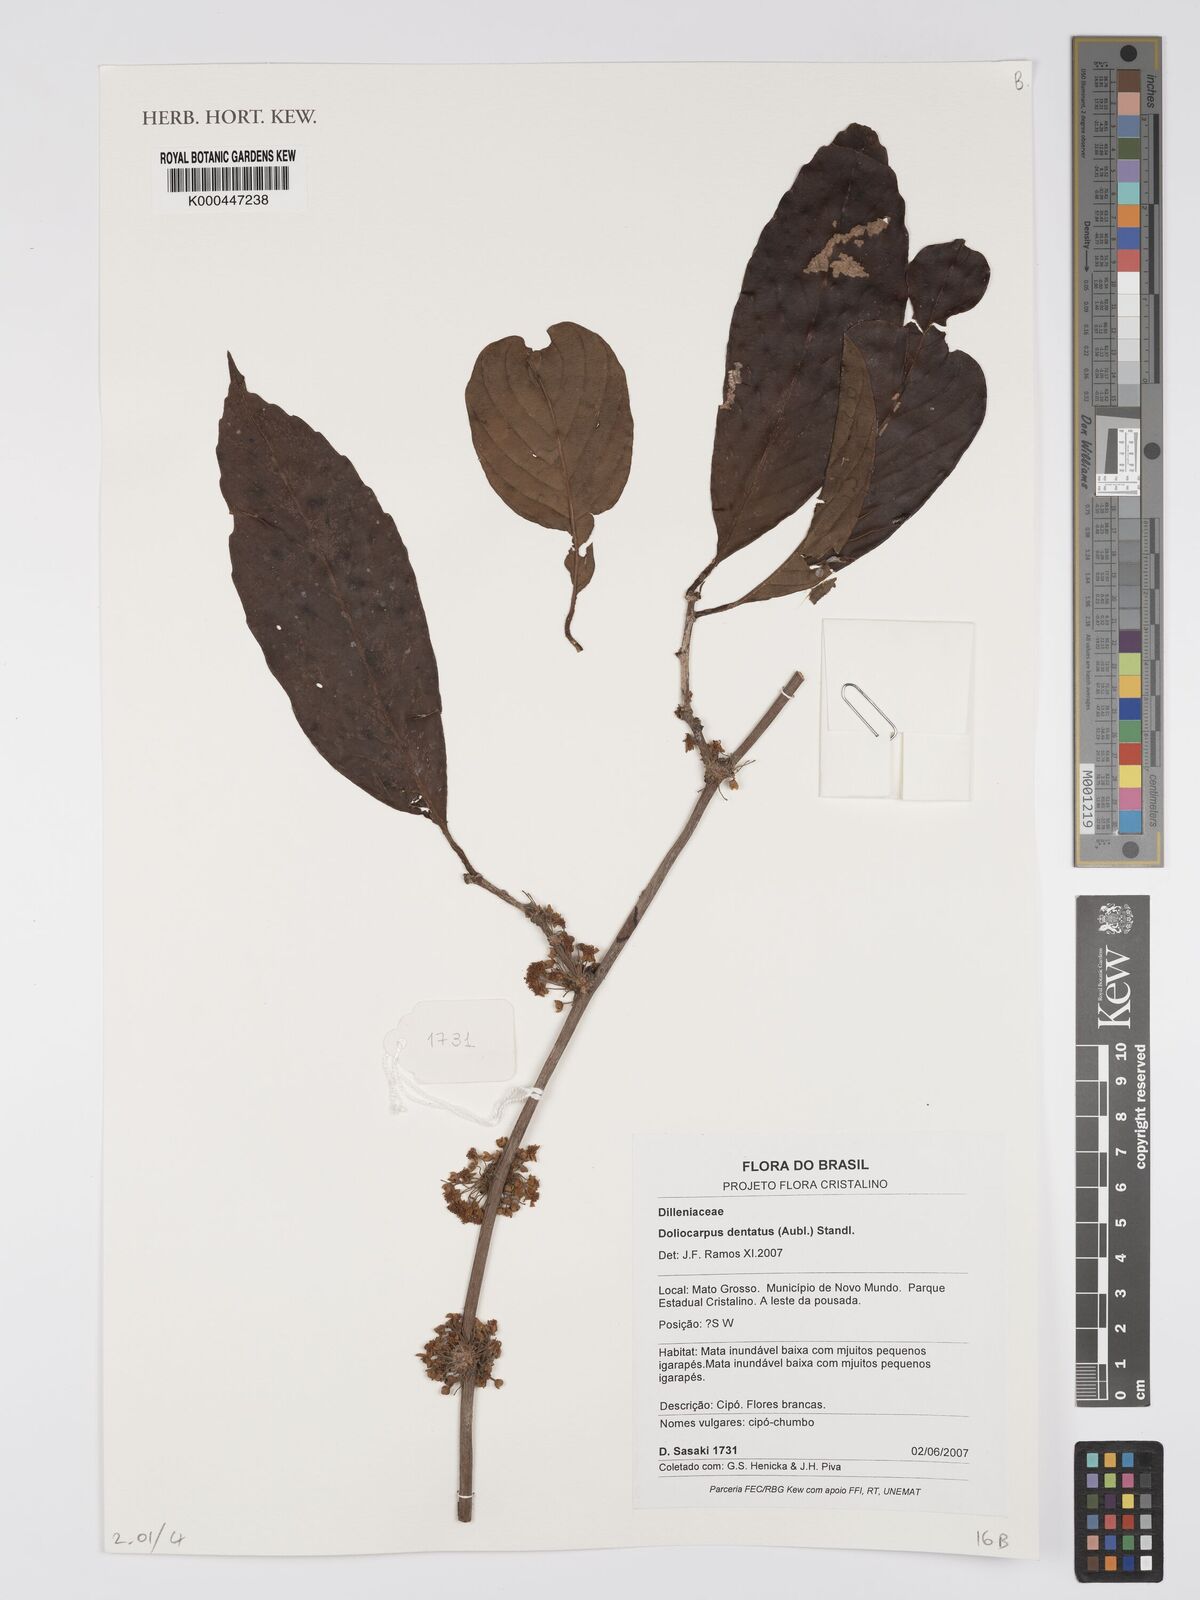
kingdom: Plantae
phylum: Tracheophyta
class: Magnoliopsida
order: Dilleniales
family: Dilleniaceae
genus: Doliocarpus
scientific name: Doliocarpus dentatus
